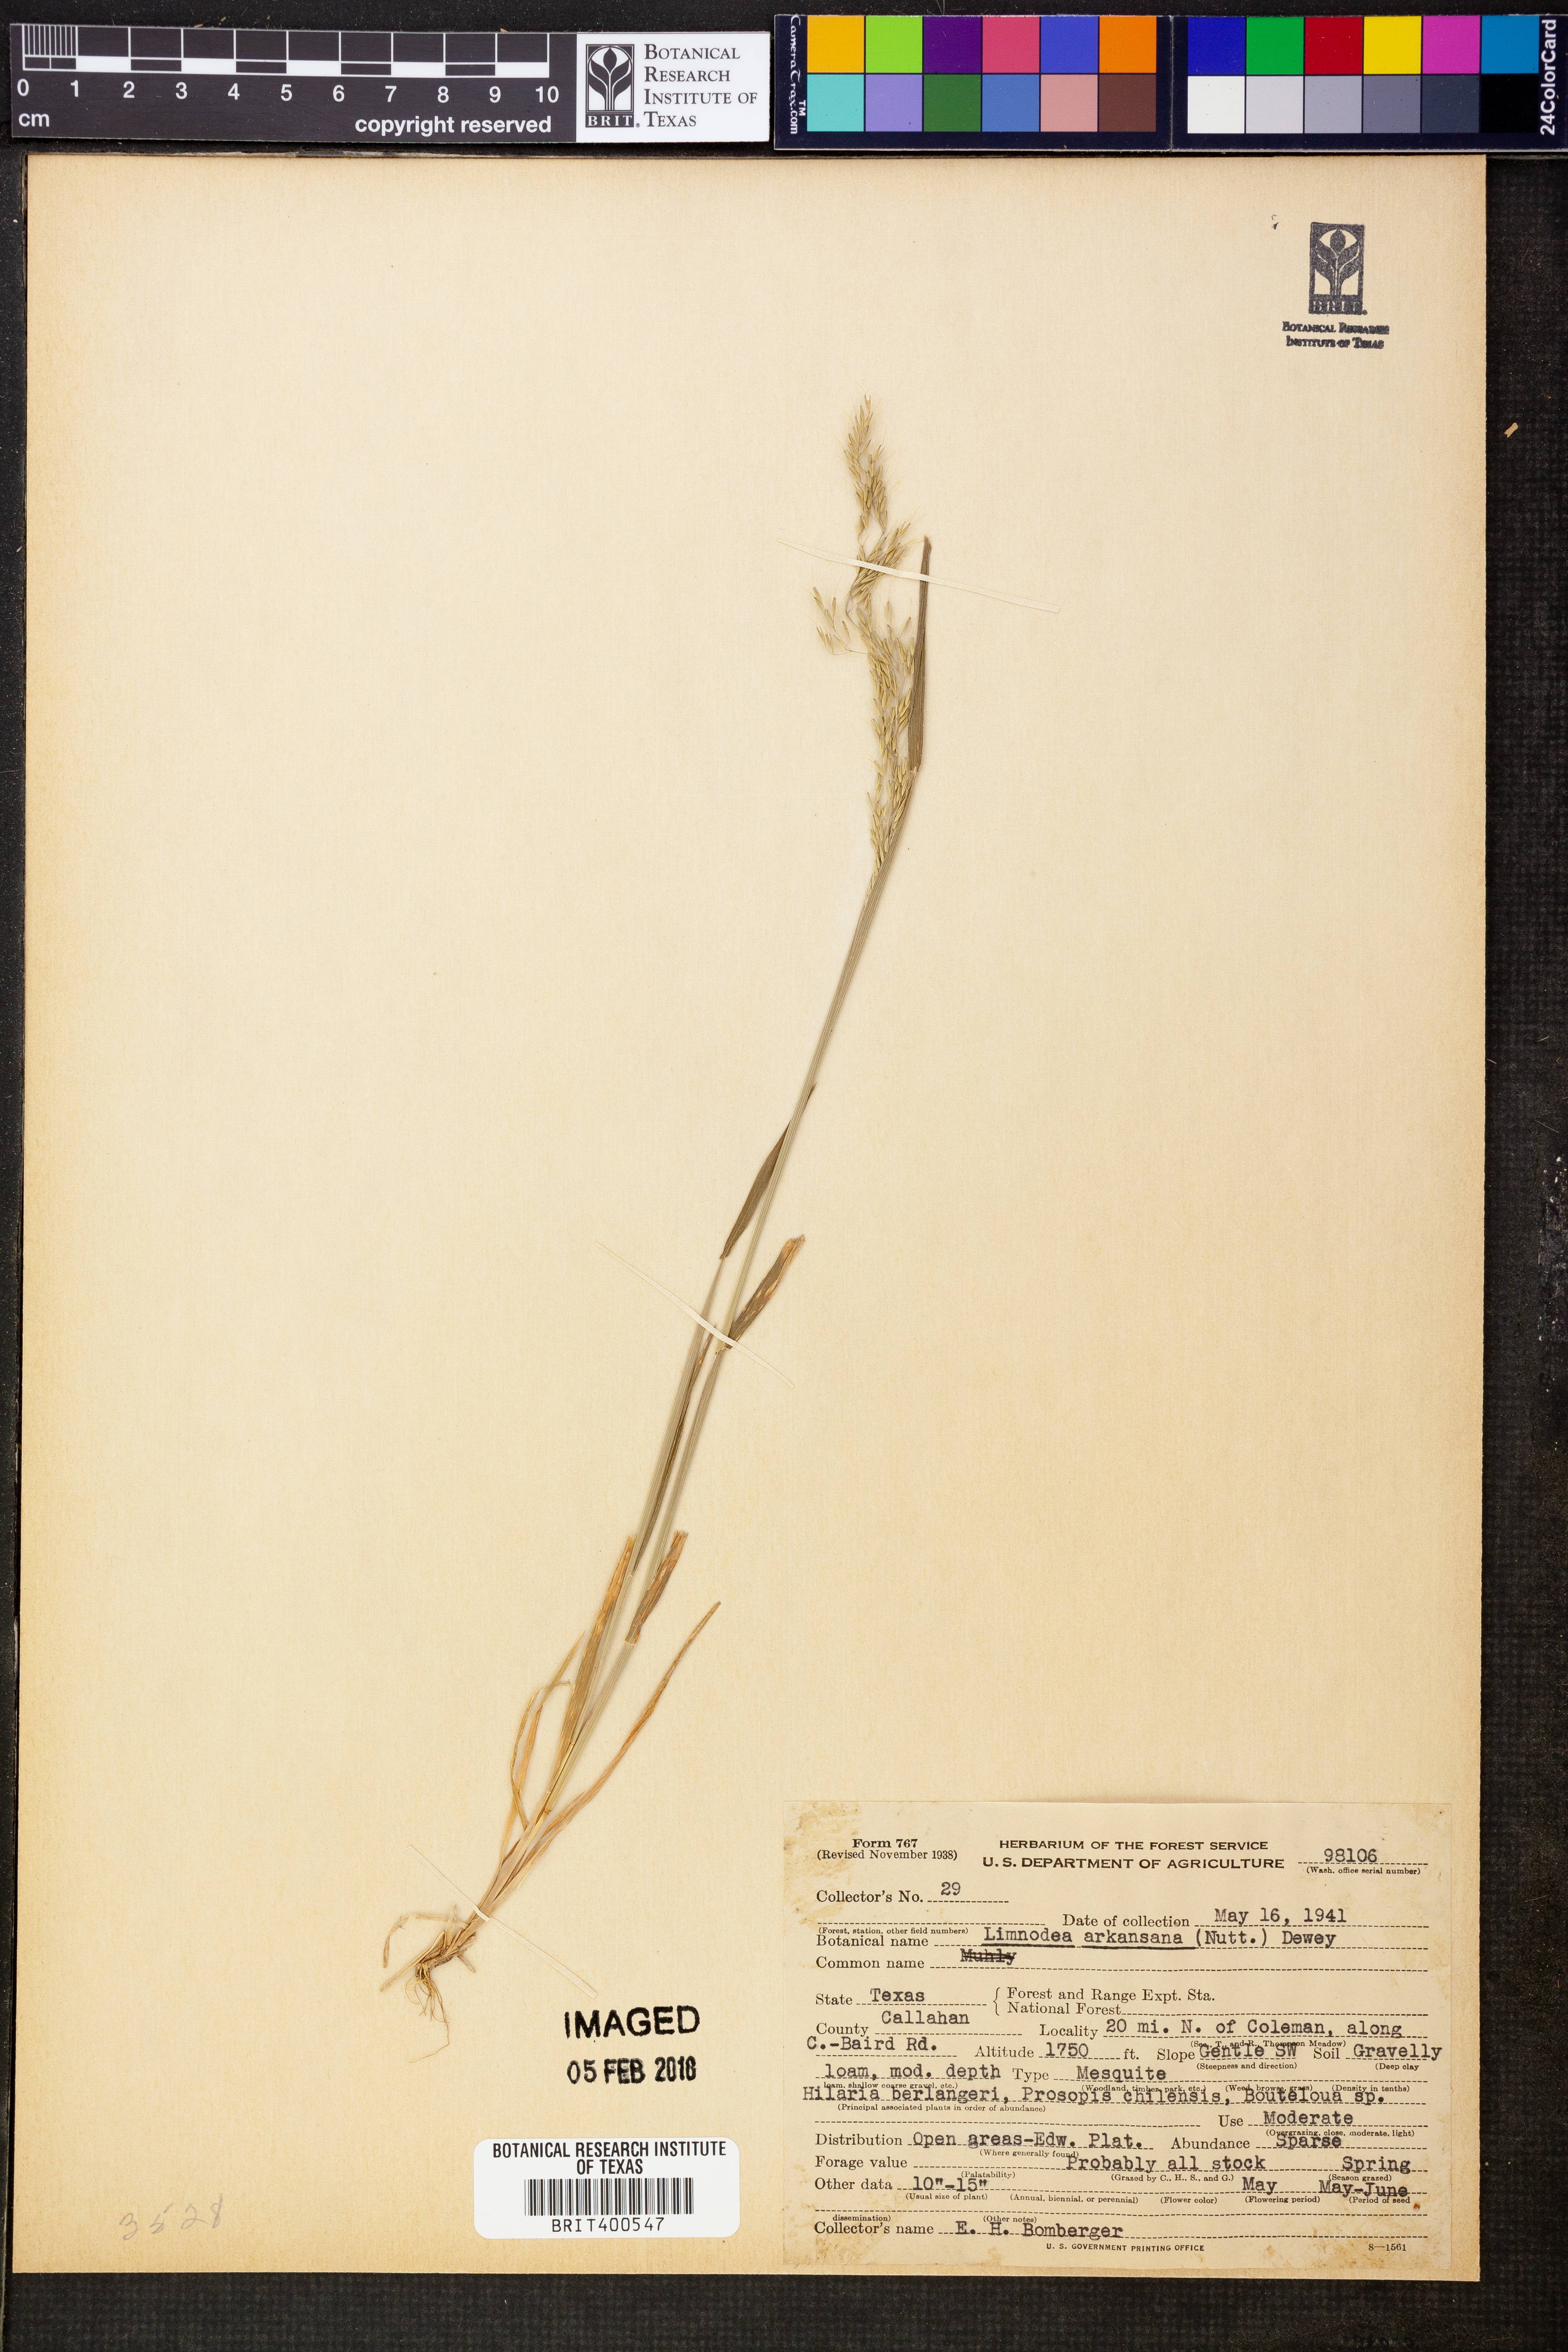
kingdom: Plantae
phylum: Tracheophyta
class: Liliopsida
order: Poales
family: Poaceae
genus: Limnodea
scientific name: Limnodea arkansana
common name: Ozark-grass
